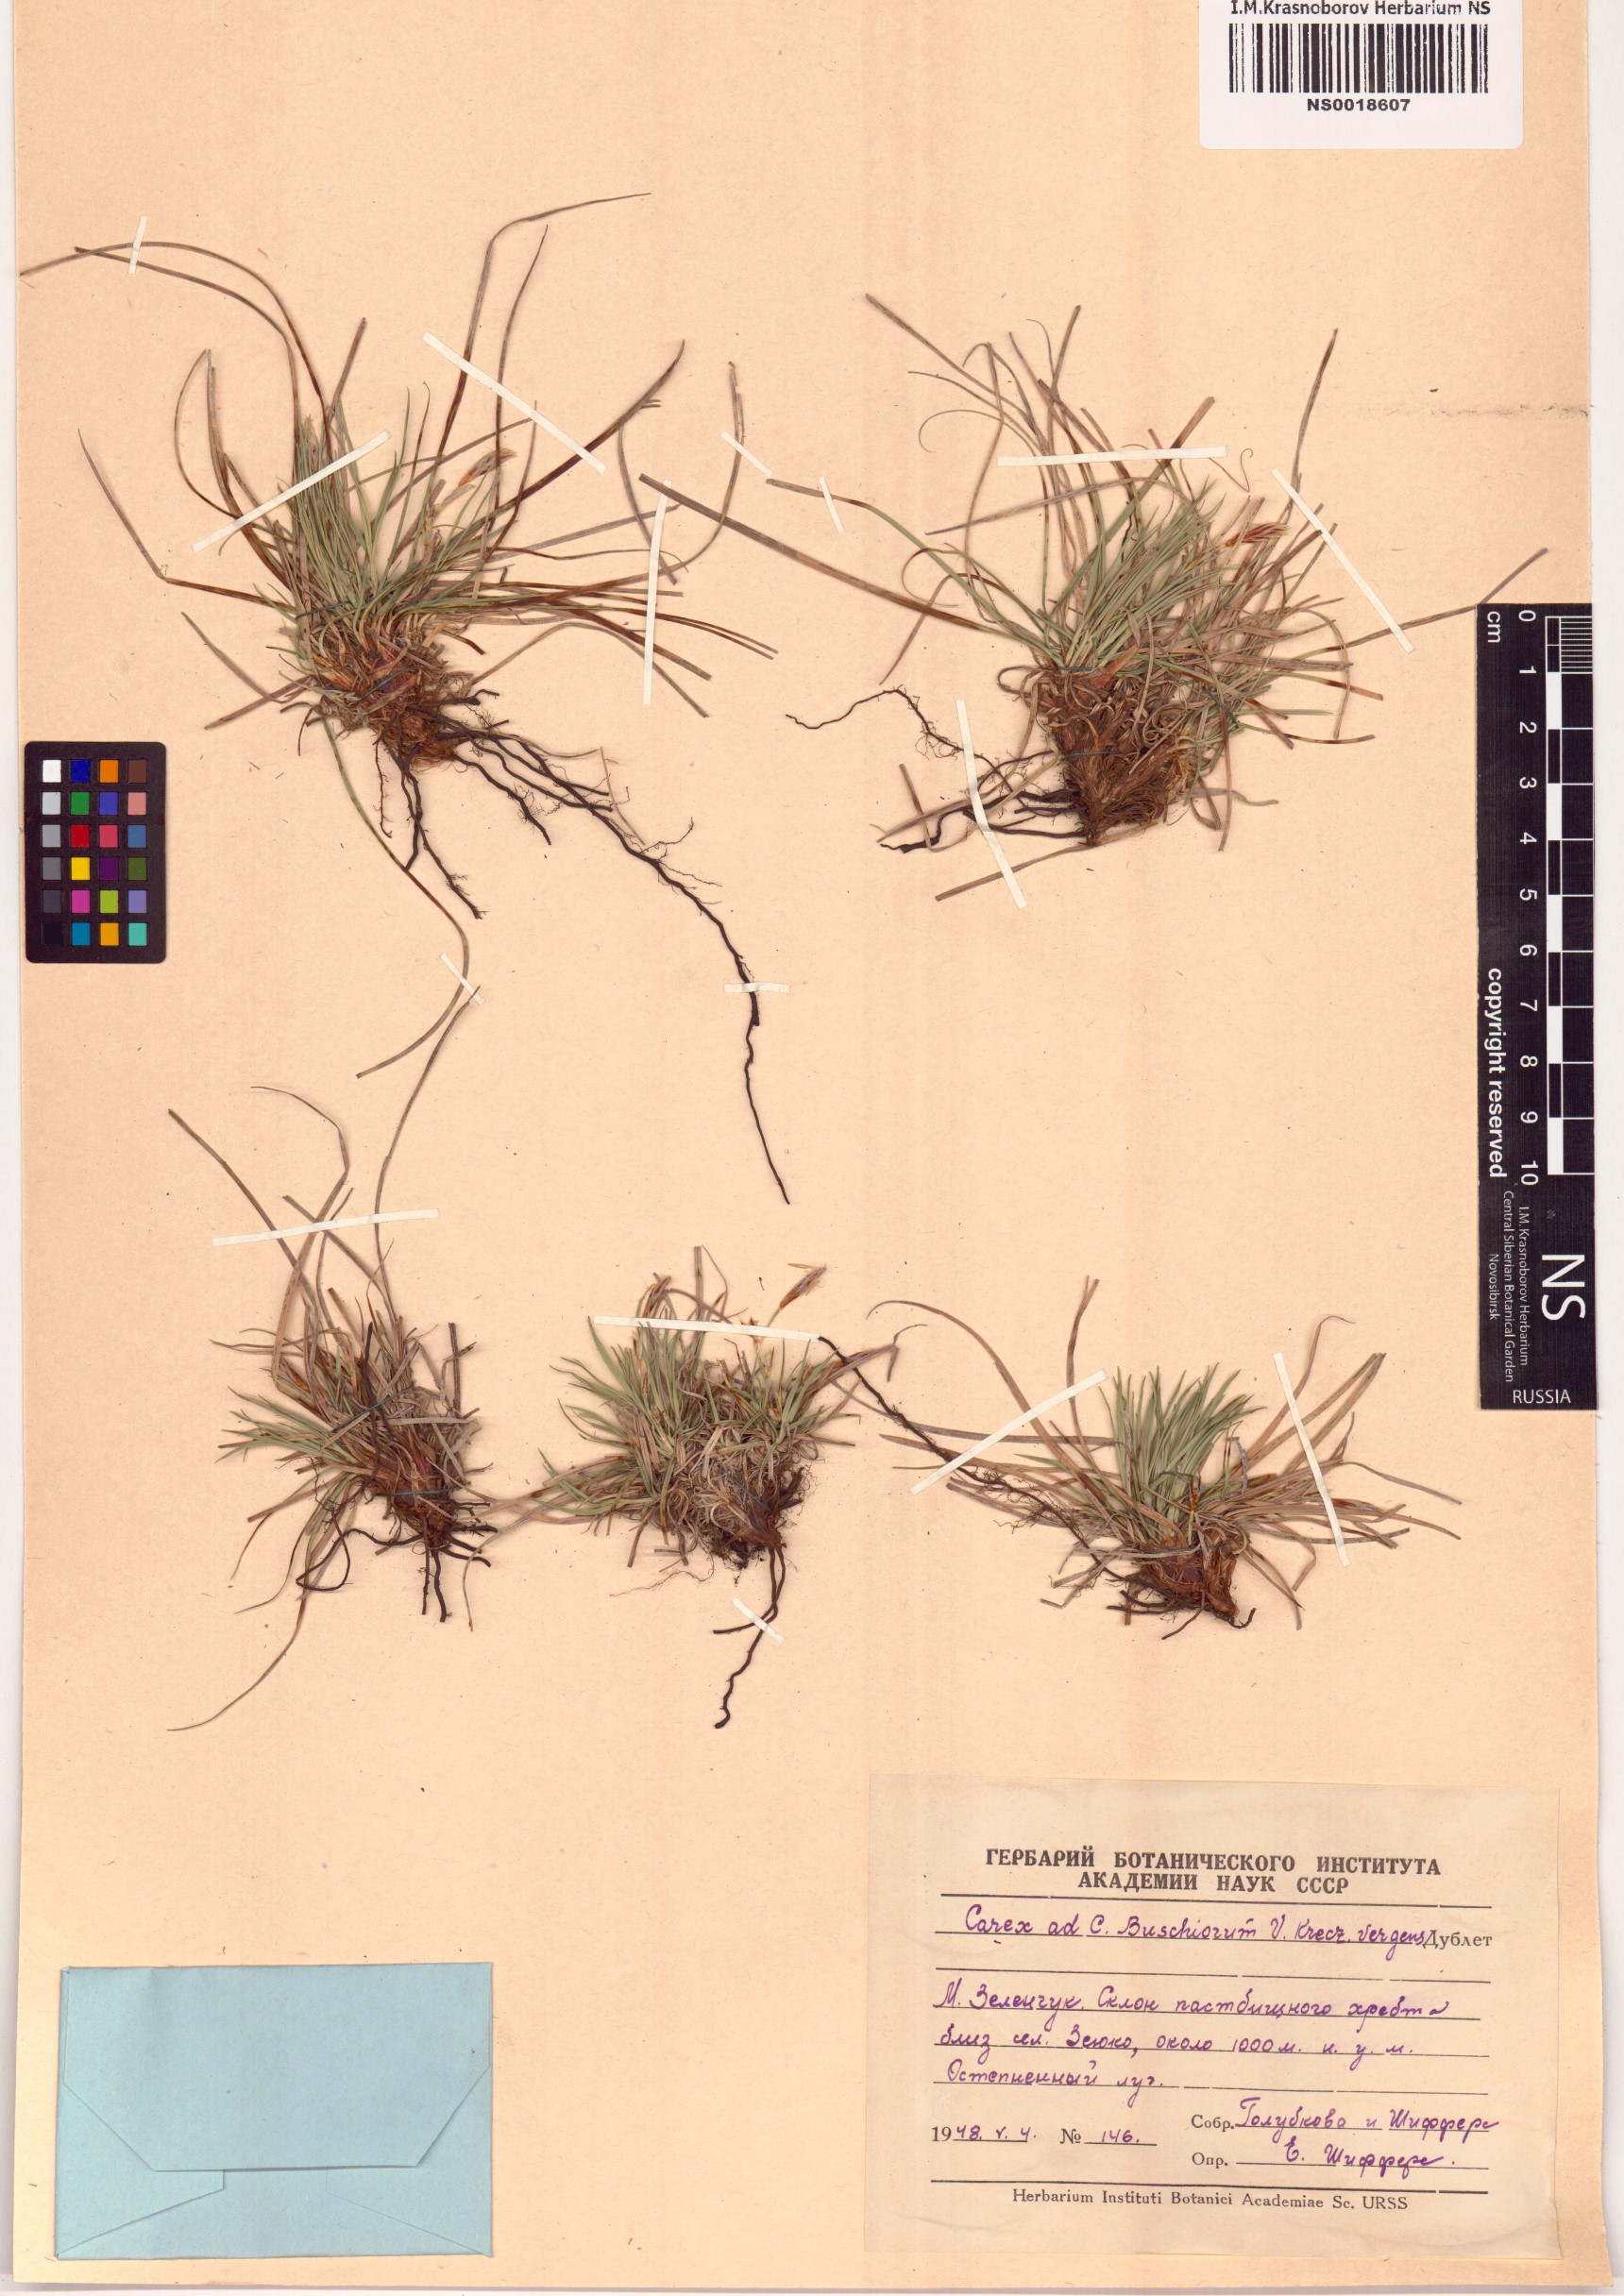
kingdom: Plantae
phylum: Tracheophyta
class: Liliopsida
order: Poales
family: Cyperaceae
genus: Carex
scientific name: Carex humilis
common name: Dwarf sedge
